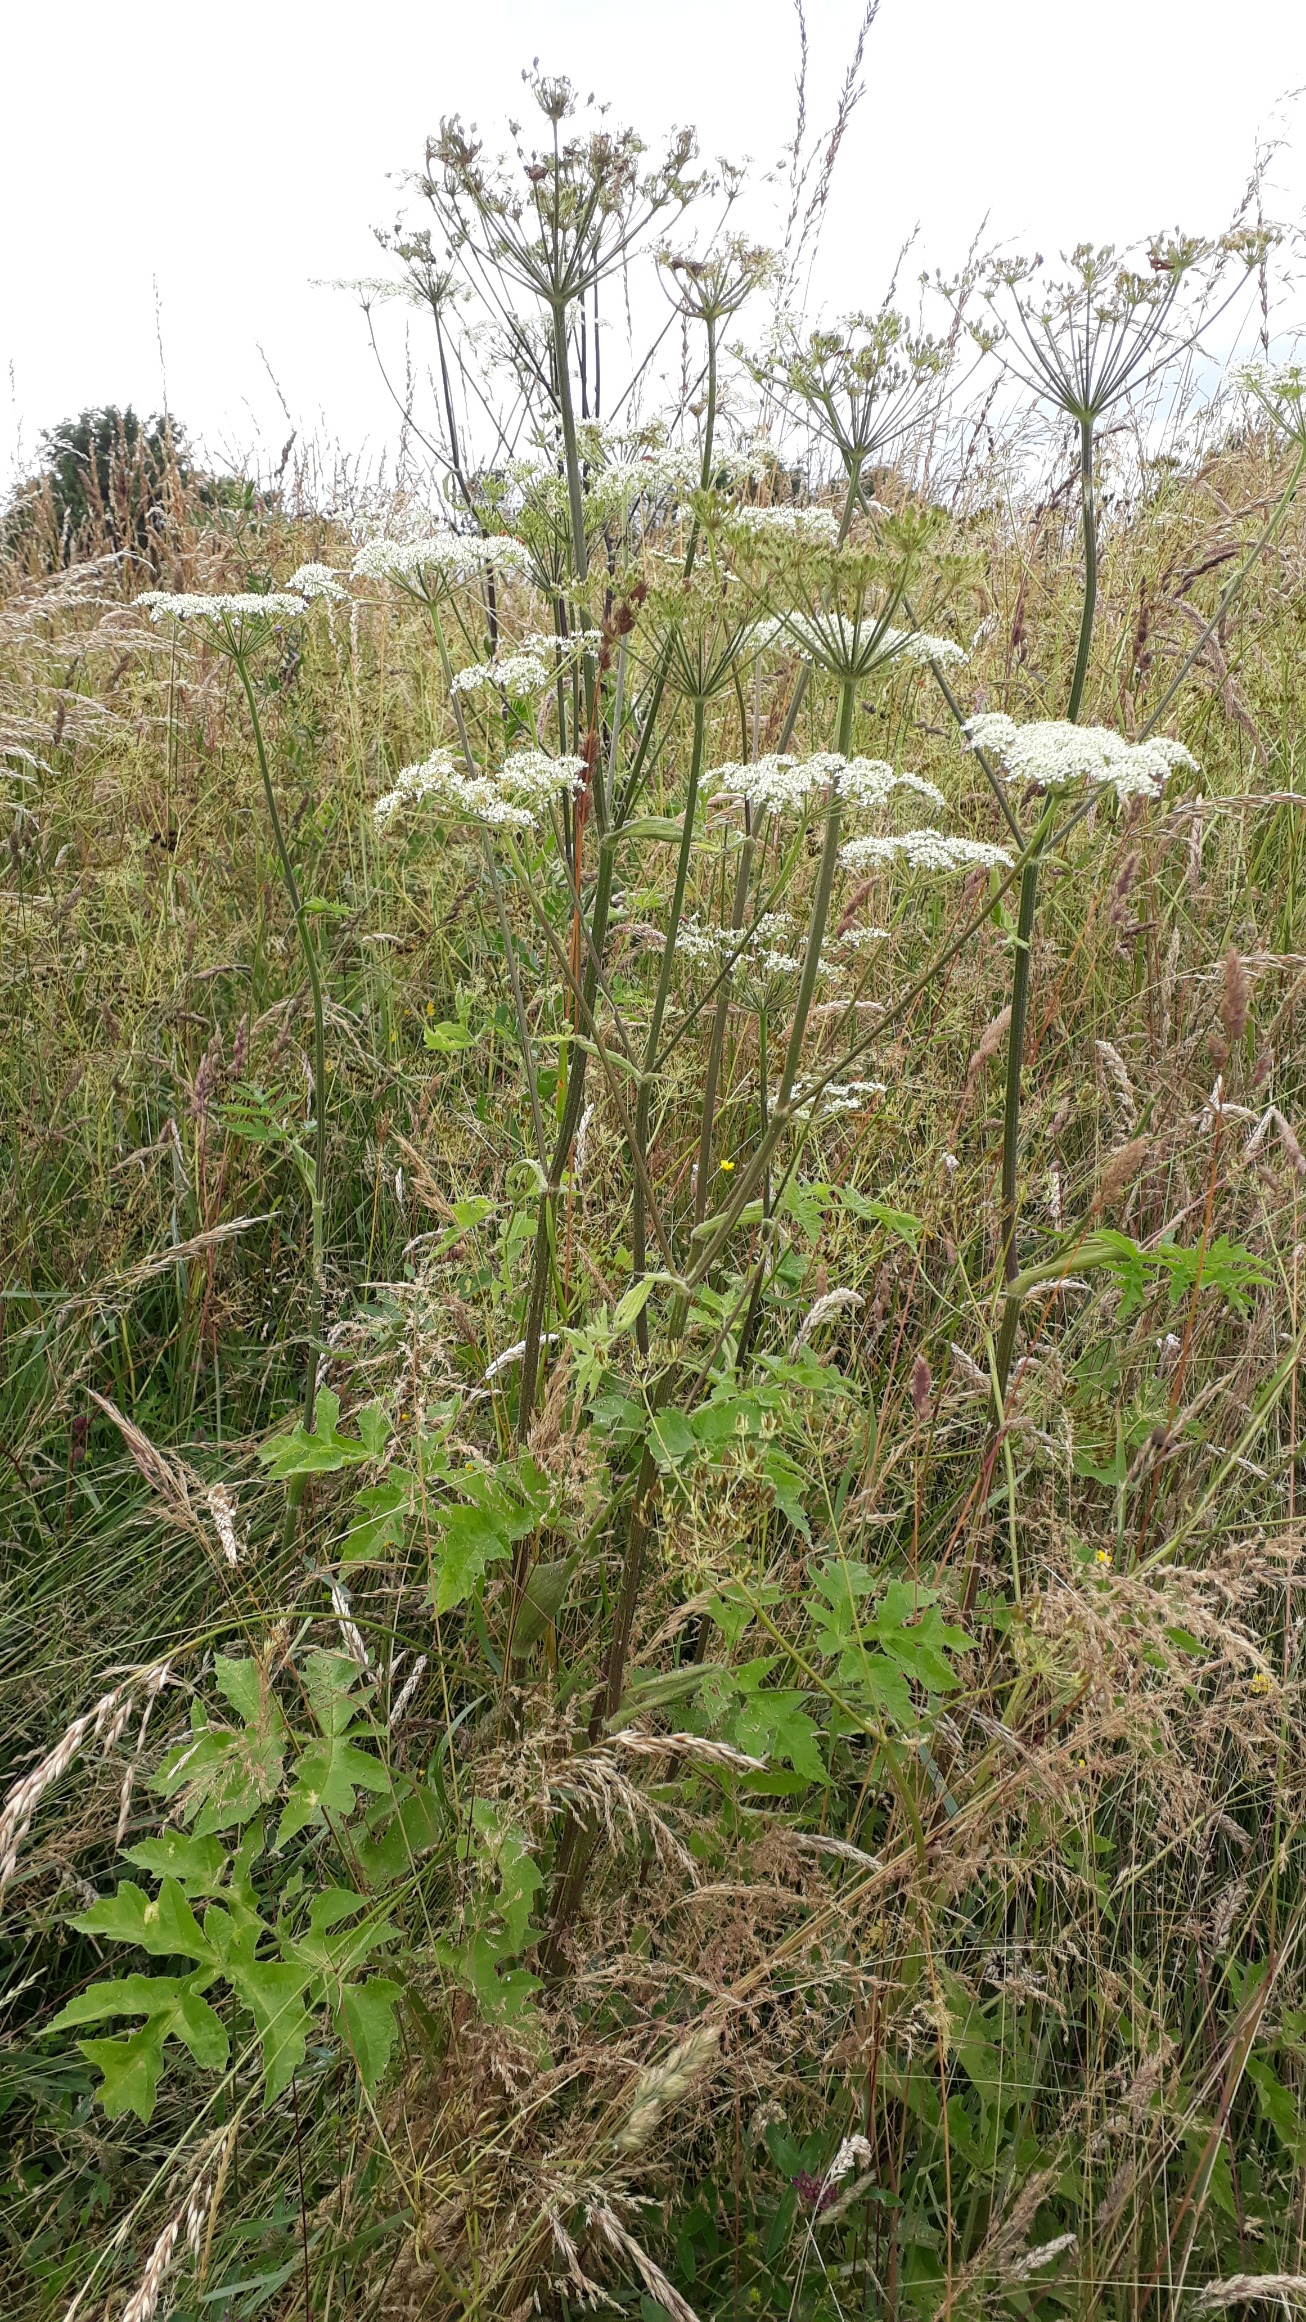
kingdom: Plantae
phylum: Tracheophyta
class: Magnoliopsida
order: Apiales
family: Apiaceae
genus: Heracleum
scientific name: Heracleum sphondylium
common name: Almindelig bjørneklo
